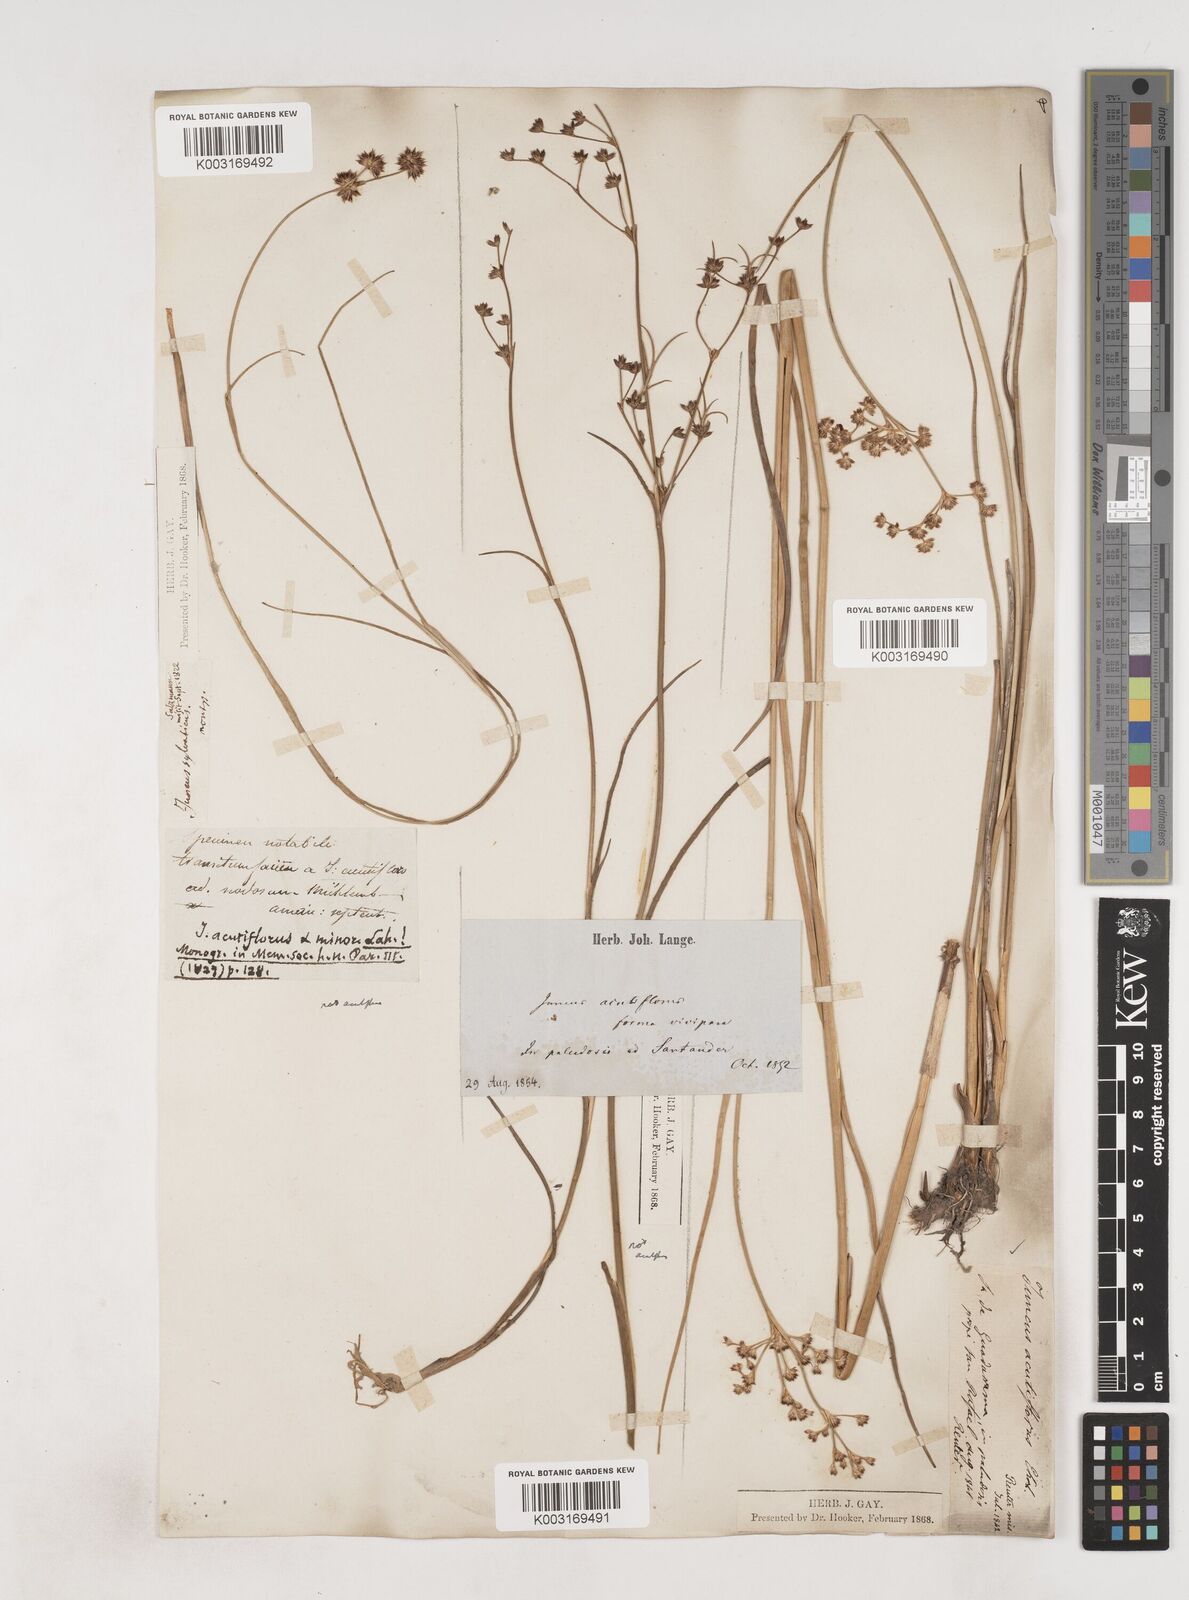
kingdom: Plantae
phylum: Tracheophyta
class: Liliopsida
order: Poales
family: Juncaceae
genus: Juncus
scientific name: Juncus acutiflorus
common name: Sharp-flowered rush
